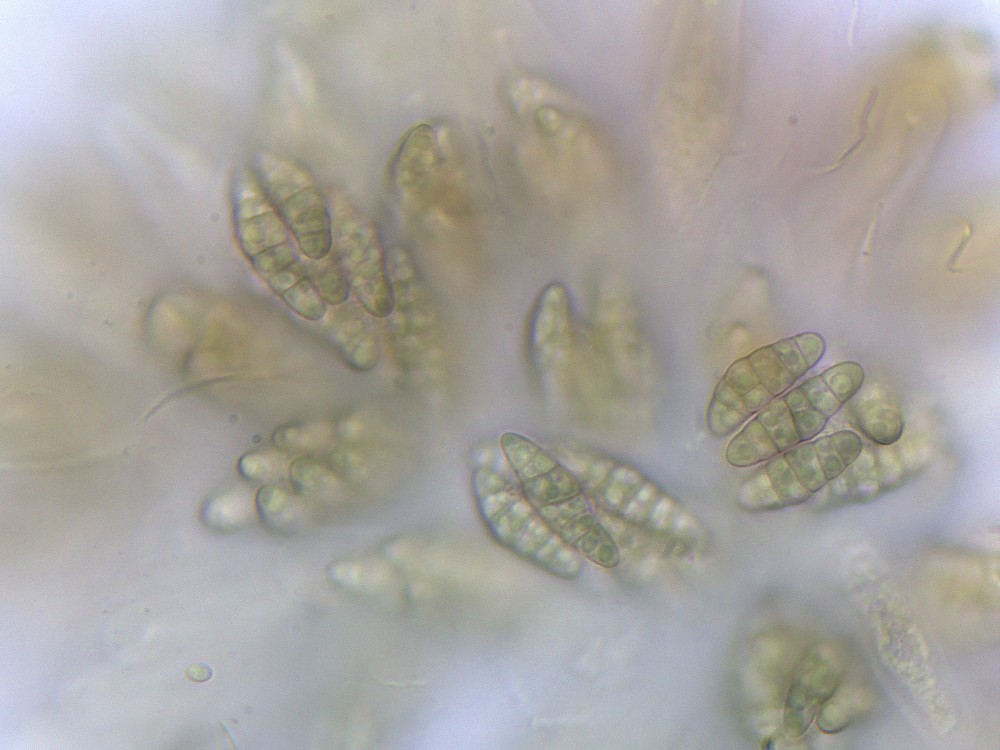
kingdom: Fungi
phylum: Ascomycota
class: Eurotiomycetes
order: Chaetothyriales
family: Herpotrichiellaceae
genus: Capronia
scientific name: Capronia nigerrima
